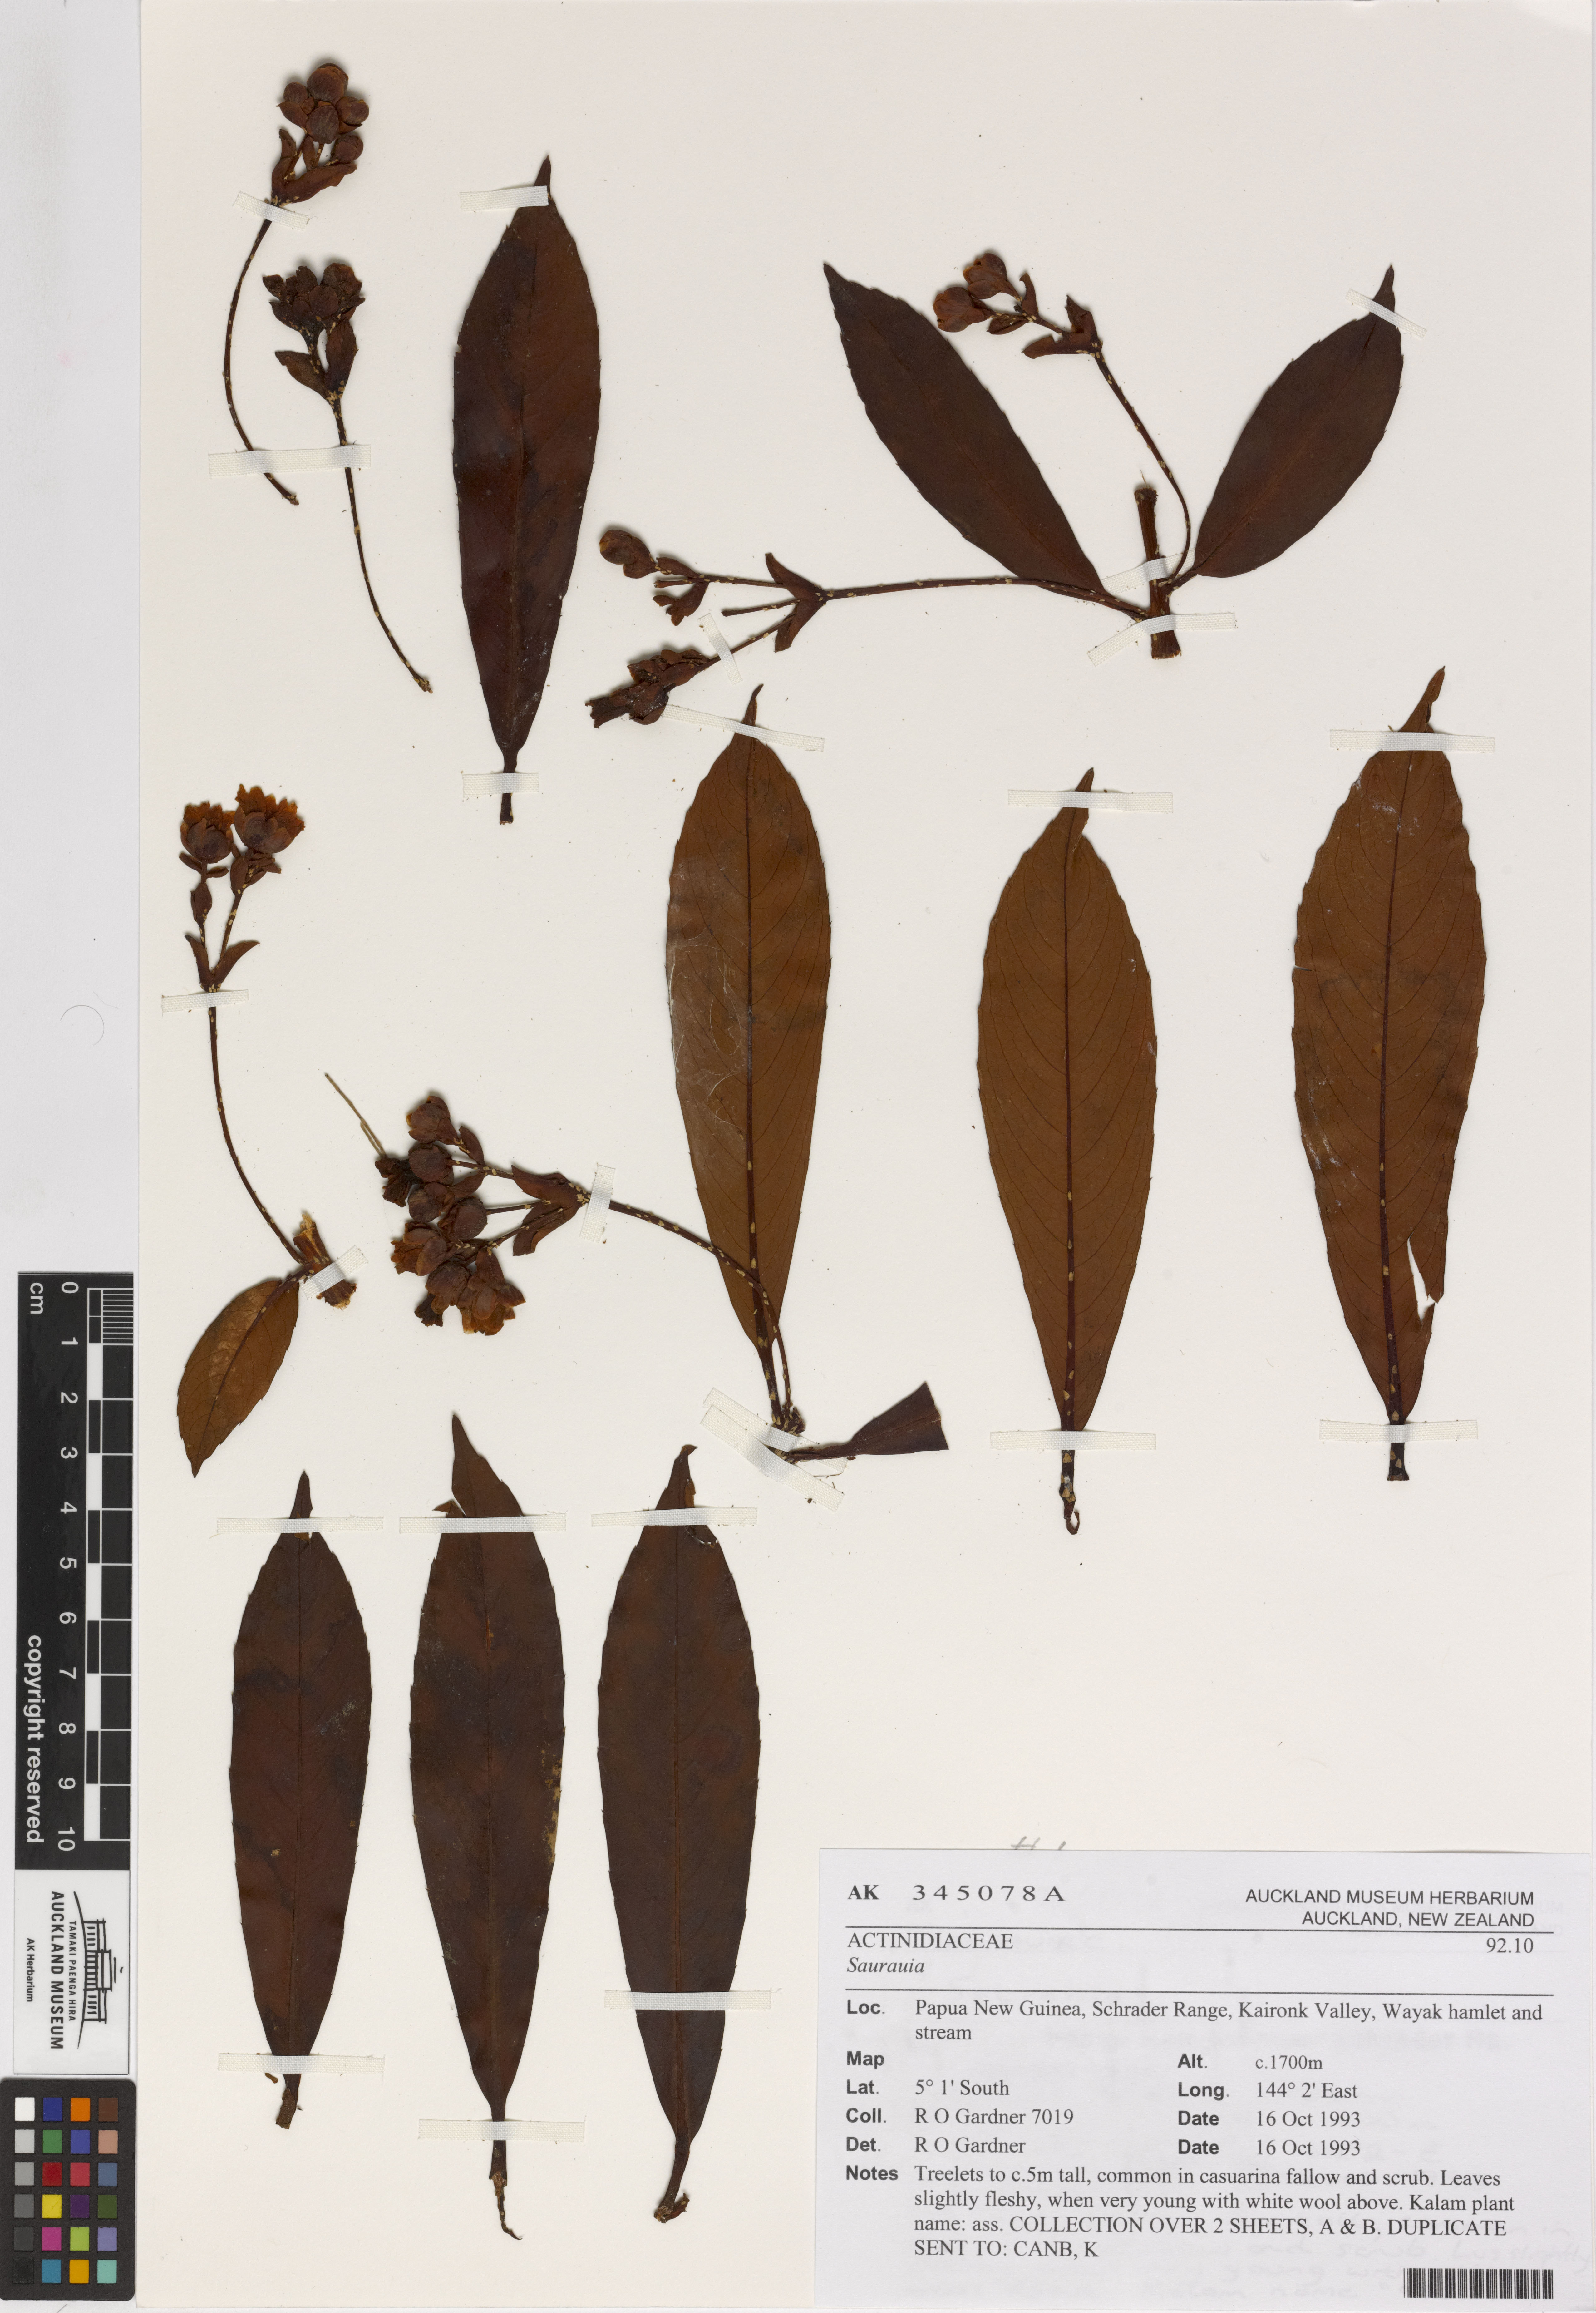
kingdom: Plantae
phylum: Tracheophyta
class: Magnoliopsida
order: Ericales
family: Actinidiaceae
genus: Saurauia
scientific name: Saurauia
